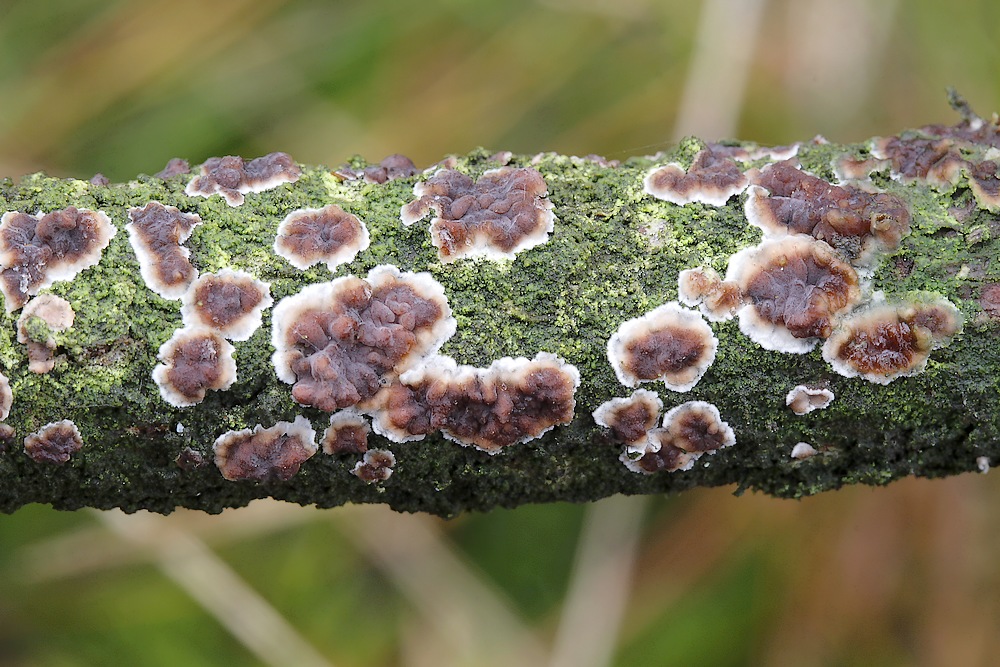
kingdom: Fungi
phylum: Basidiomycota
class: Agaricomycetes
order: Russulales
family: Peniophoraceae
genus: Peniophora
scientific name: Peniophora pini
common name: fyrre-voksskind
